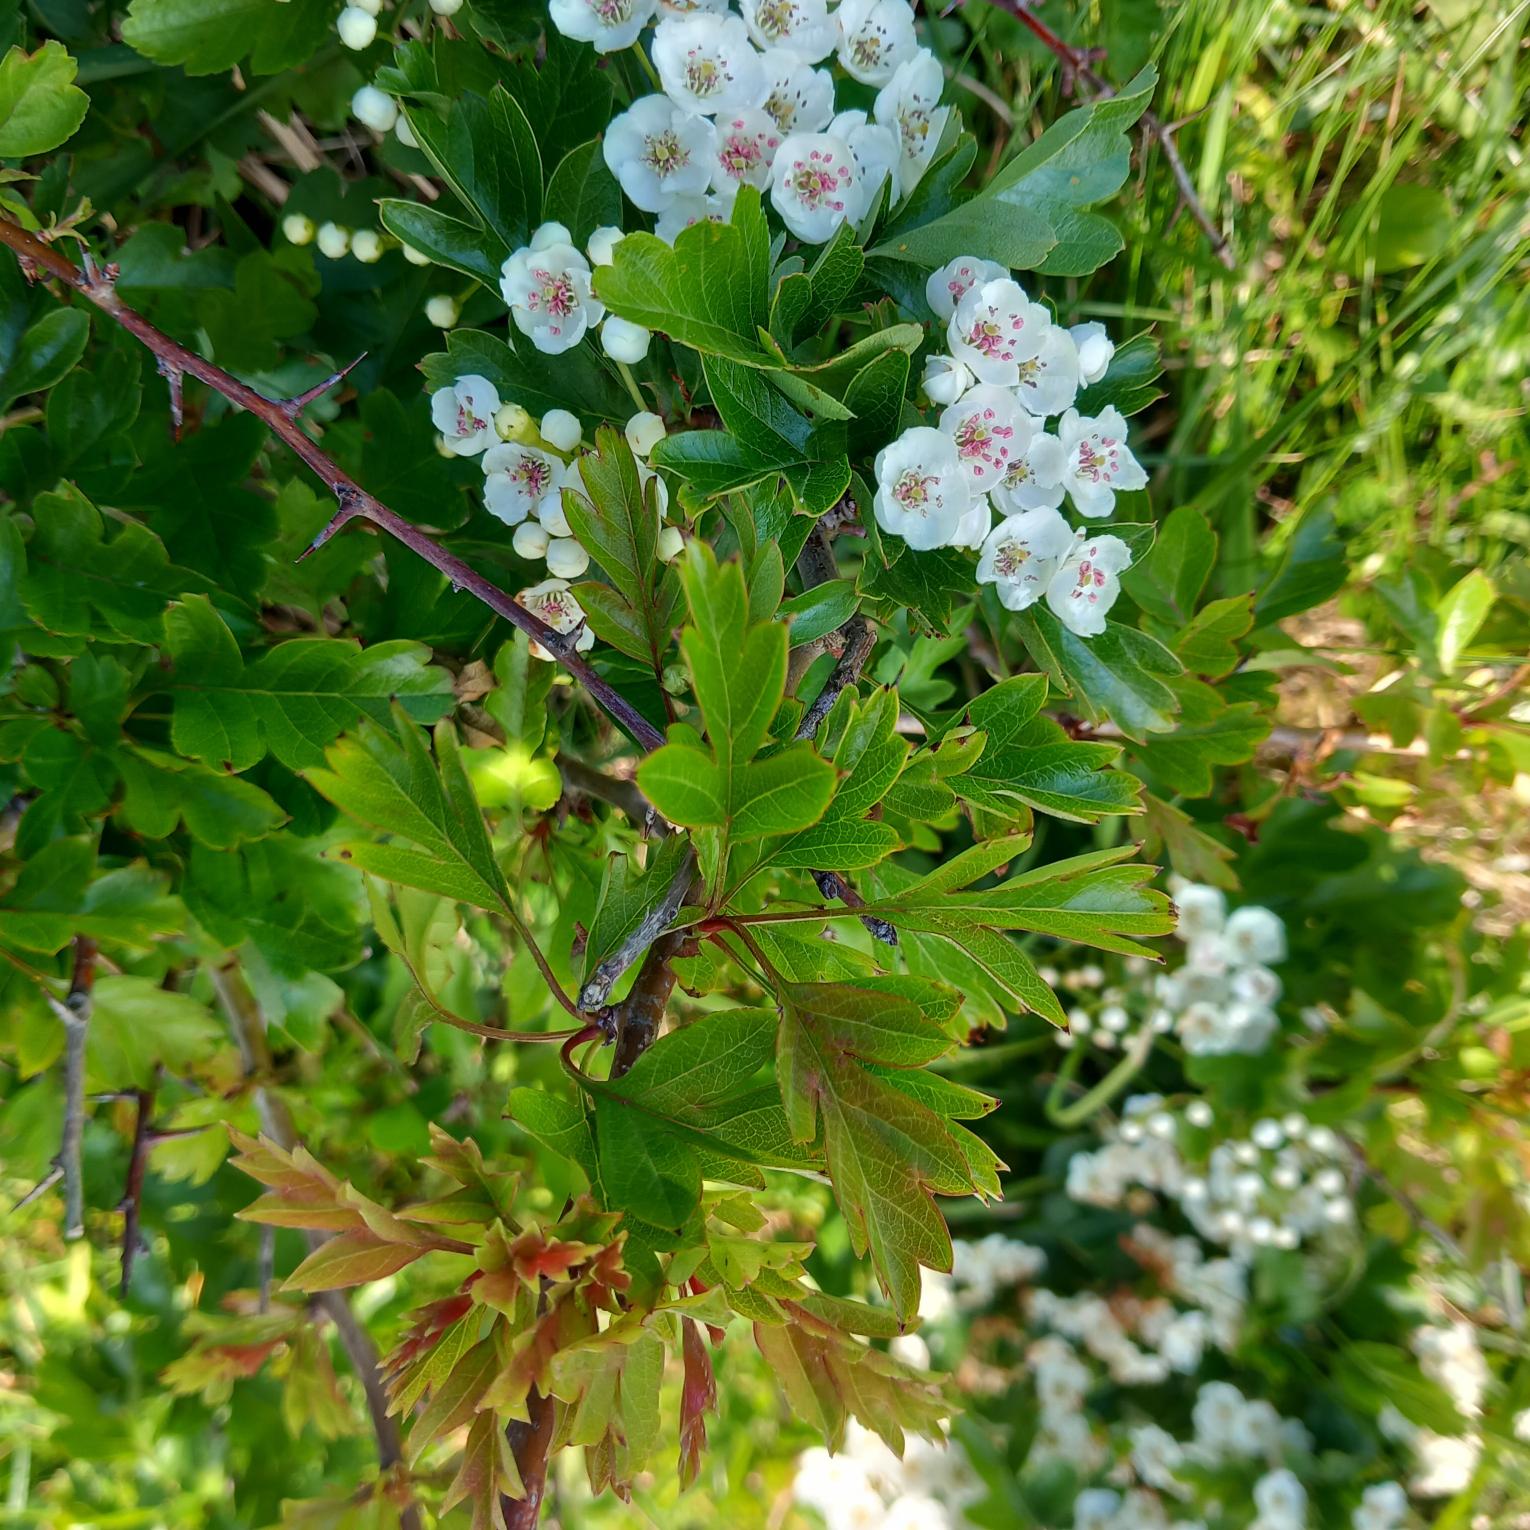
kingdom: Plantae
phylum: Tracheophyta
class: Magnoliopsida
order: Rosales
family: Rosaceae
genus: Crataegus
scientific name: Crataegus monogyna
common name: Engriflet hvidtjørn
